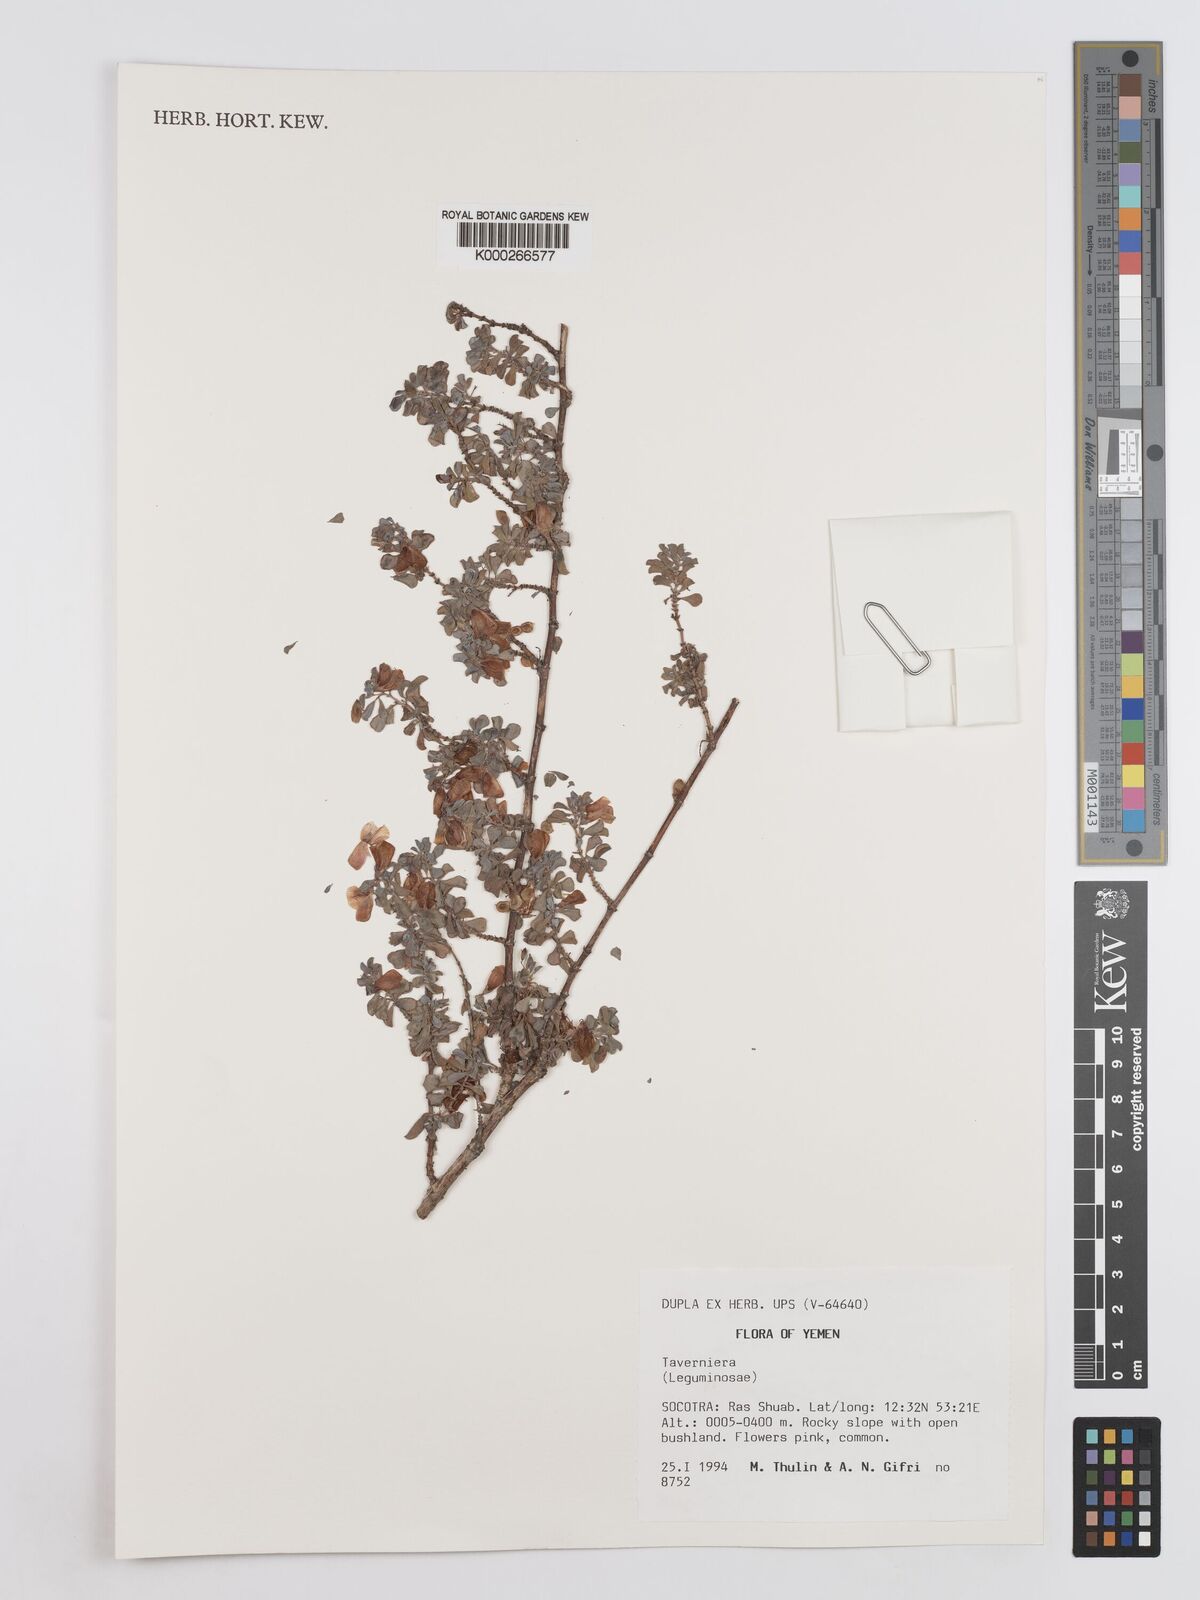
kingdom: Plantae
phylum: Tracheophyta
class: Magnoliopsida
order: Fabales
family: Fabaceae
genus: Taverniera
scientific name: Taverniera
